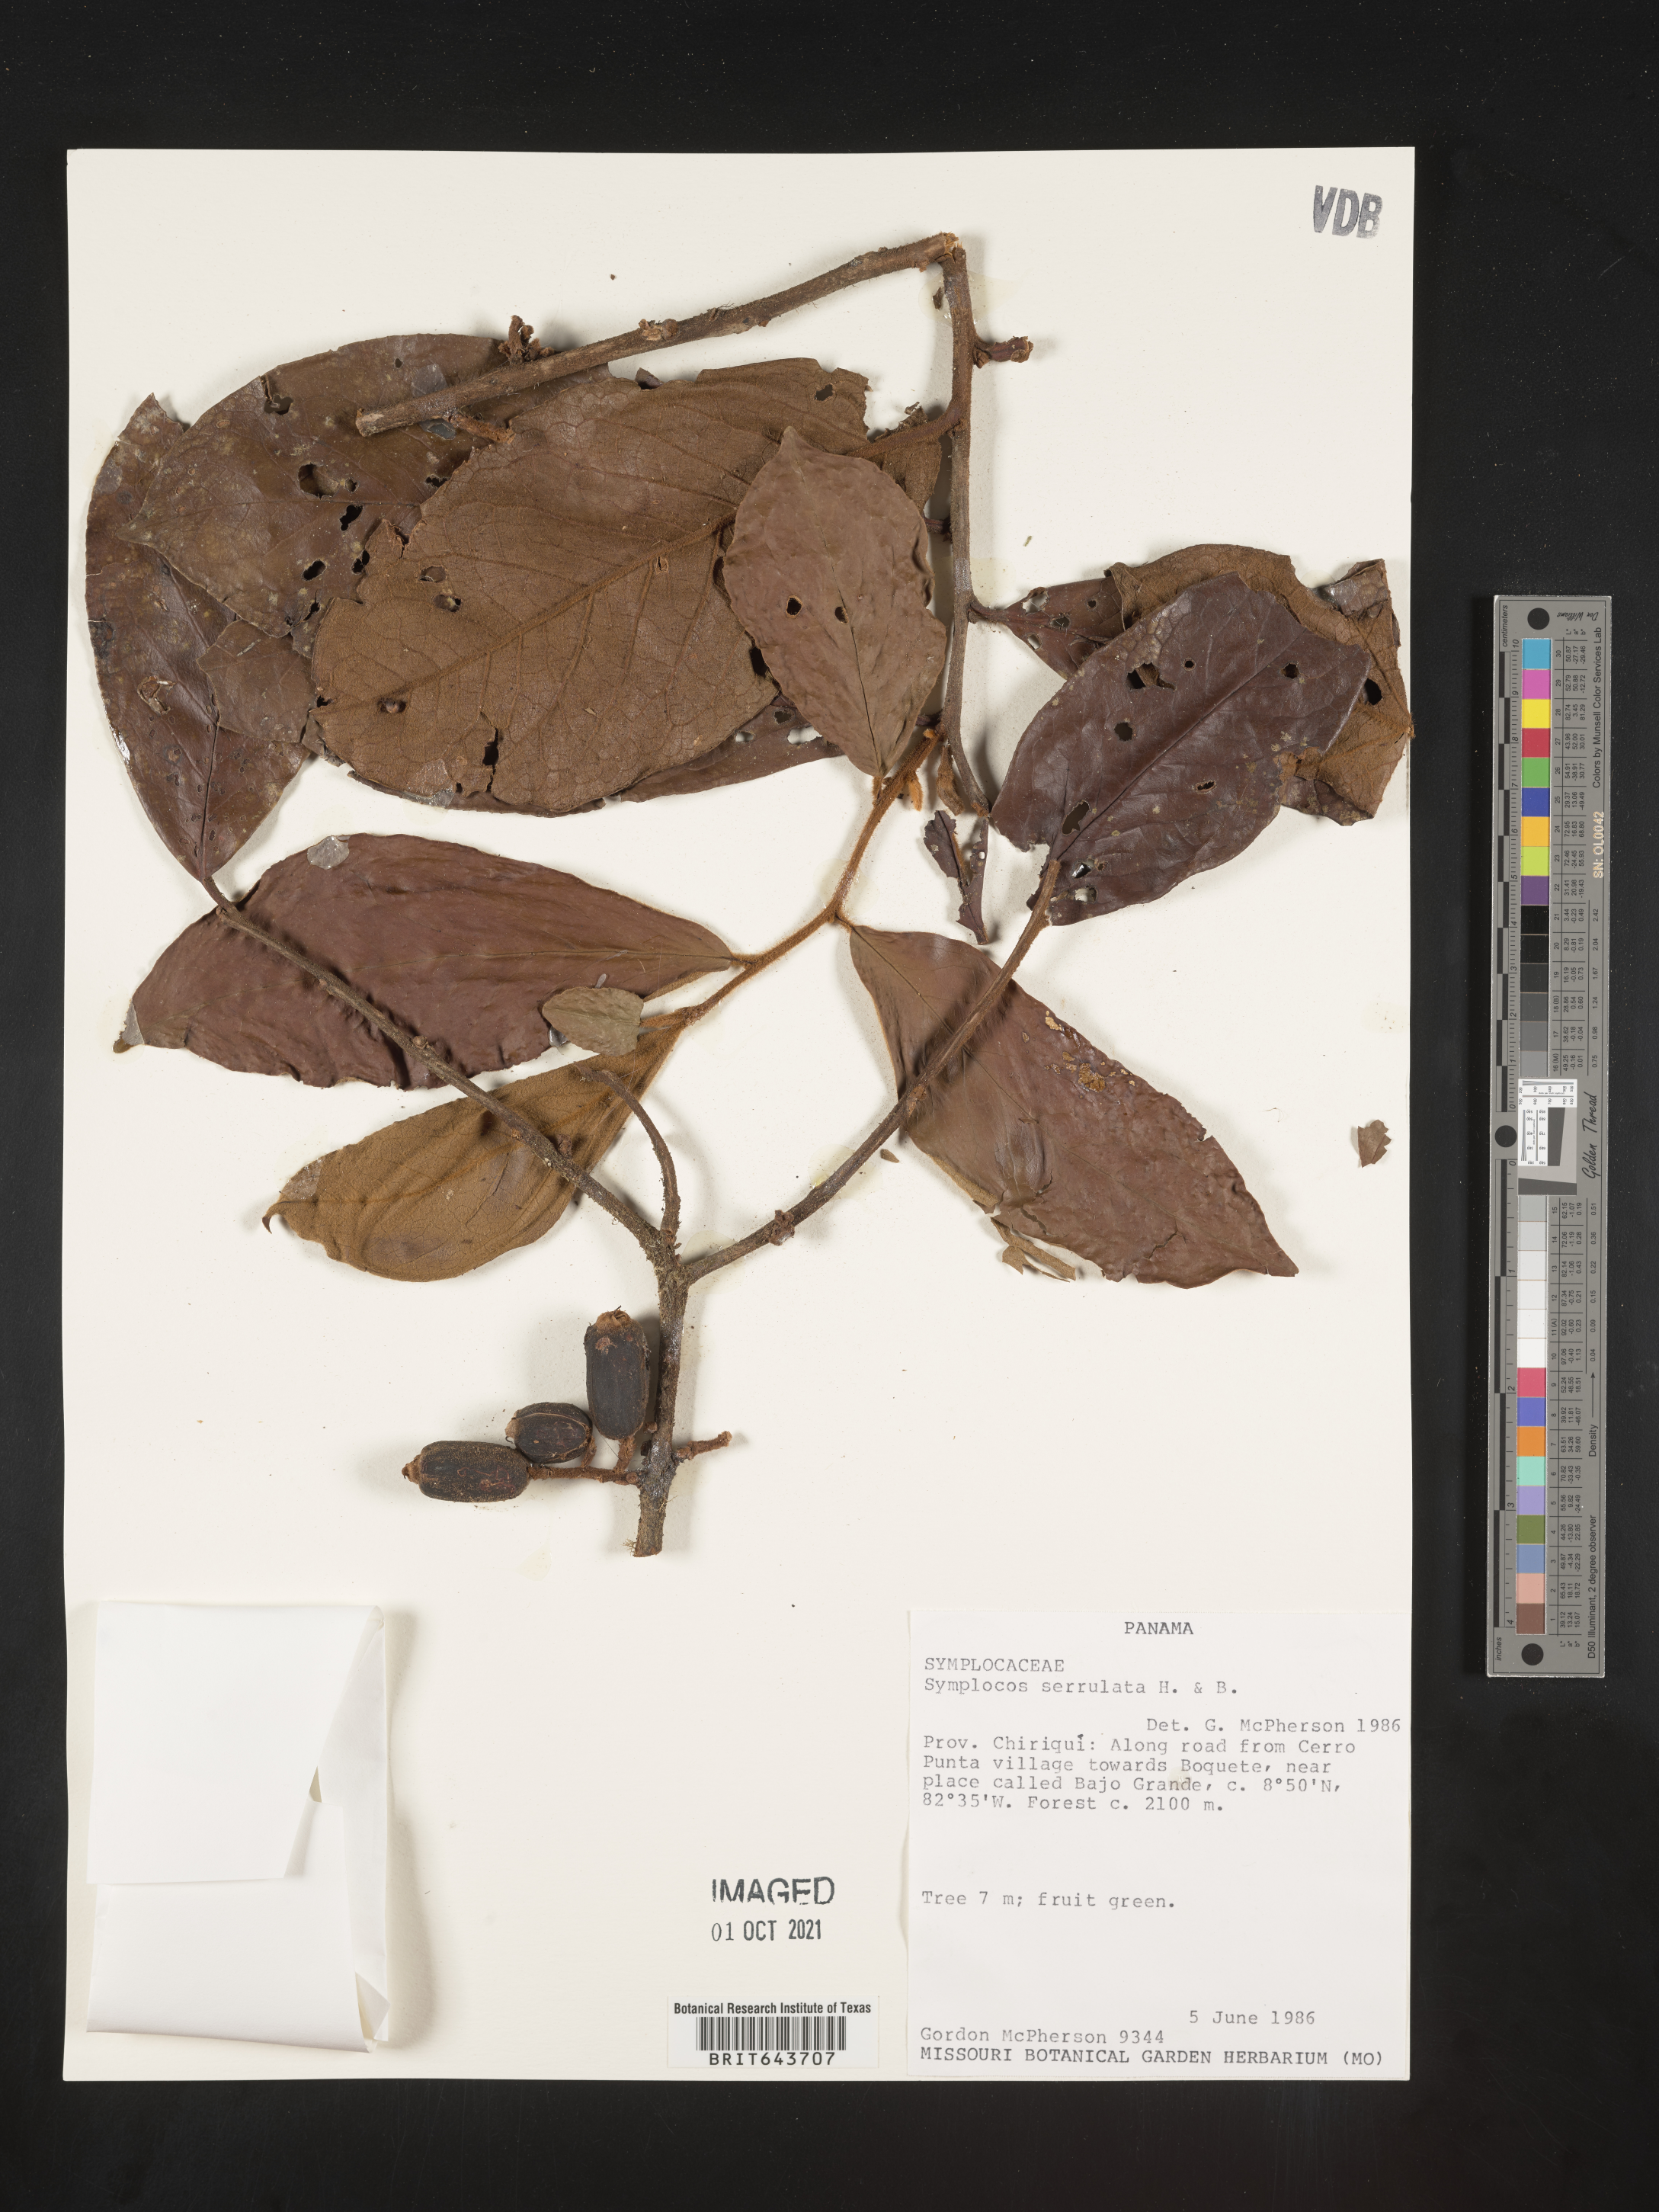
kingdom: Plantae
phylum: Tracheophyta
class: Magnoliopsida
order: Ericales
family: Symplocaceae
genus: Symplocos
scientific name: Symplocos
